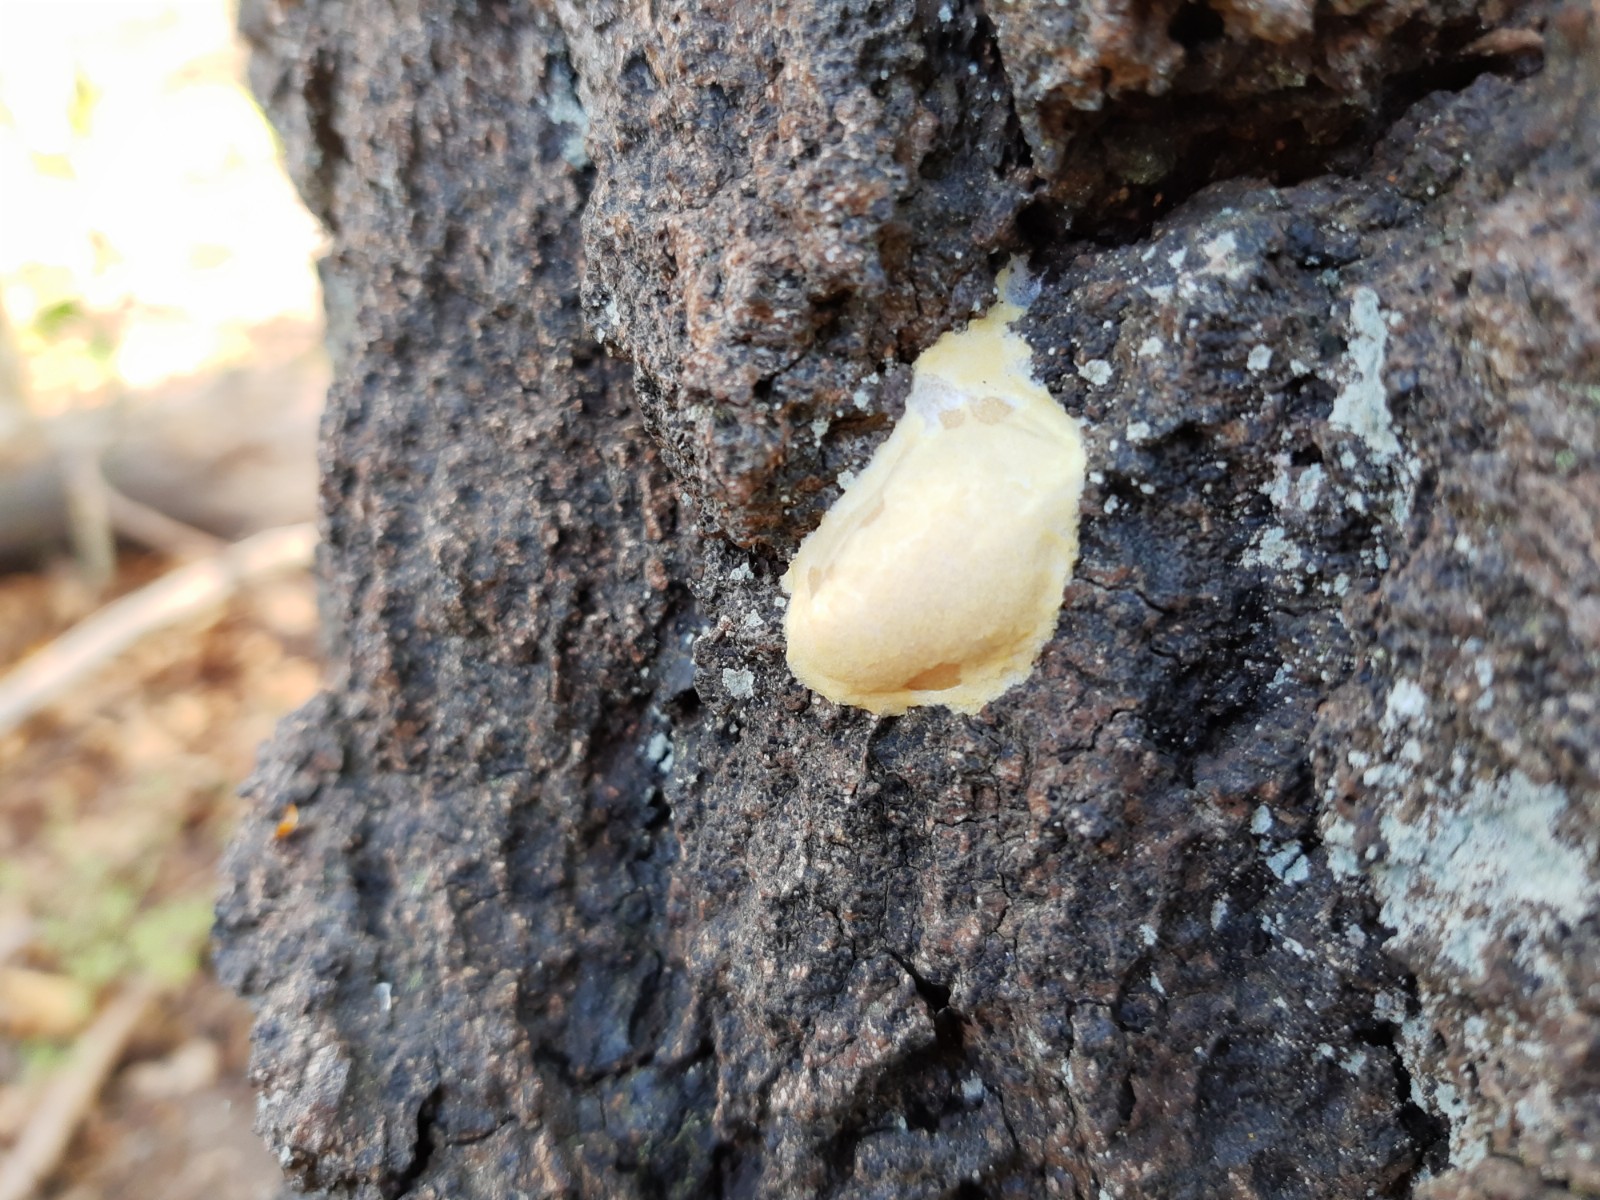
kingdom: Protozoa
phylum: Mycetozoa
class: Myxomycetes
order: Cribrariales
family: Tubiferaceae
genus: Reticularia
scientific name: Reticularia lycoperdon
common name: skinnende støvpude
